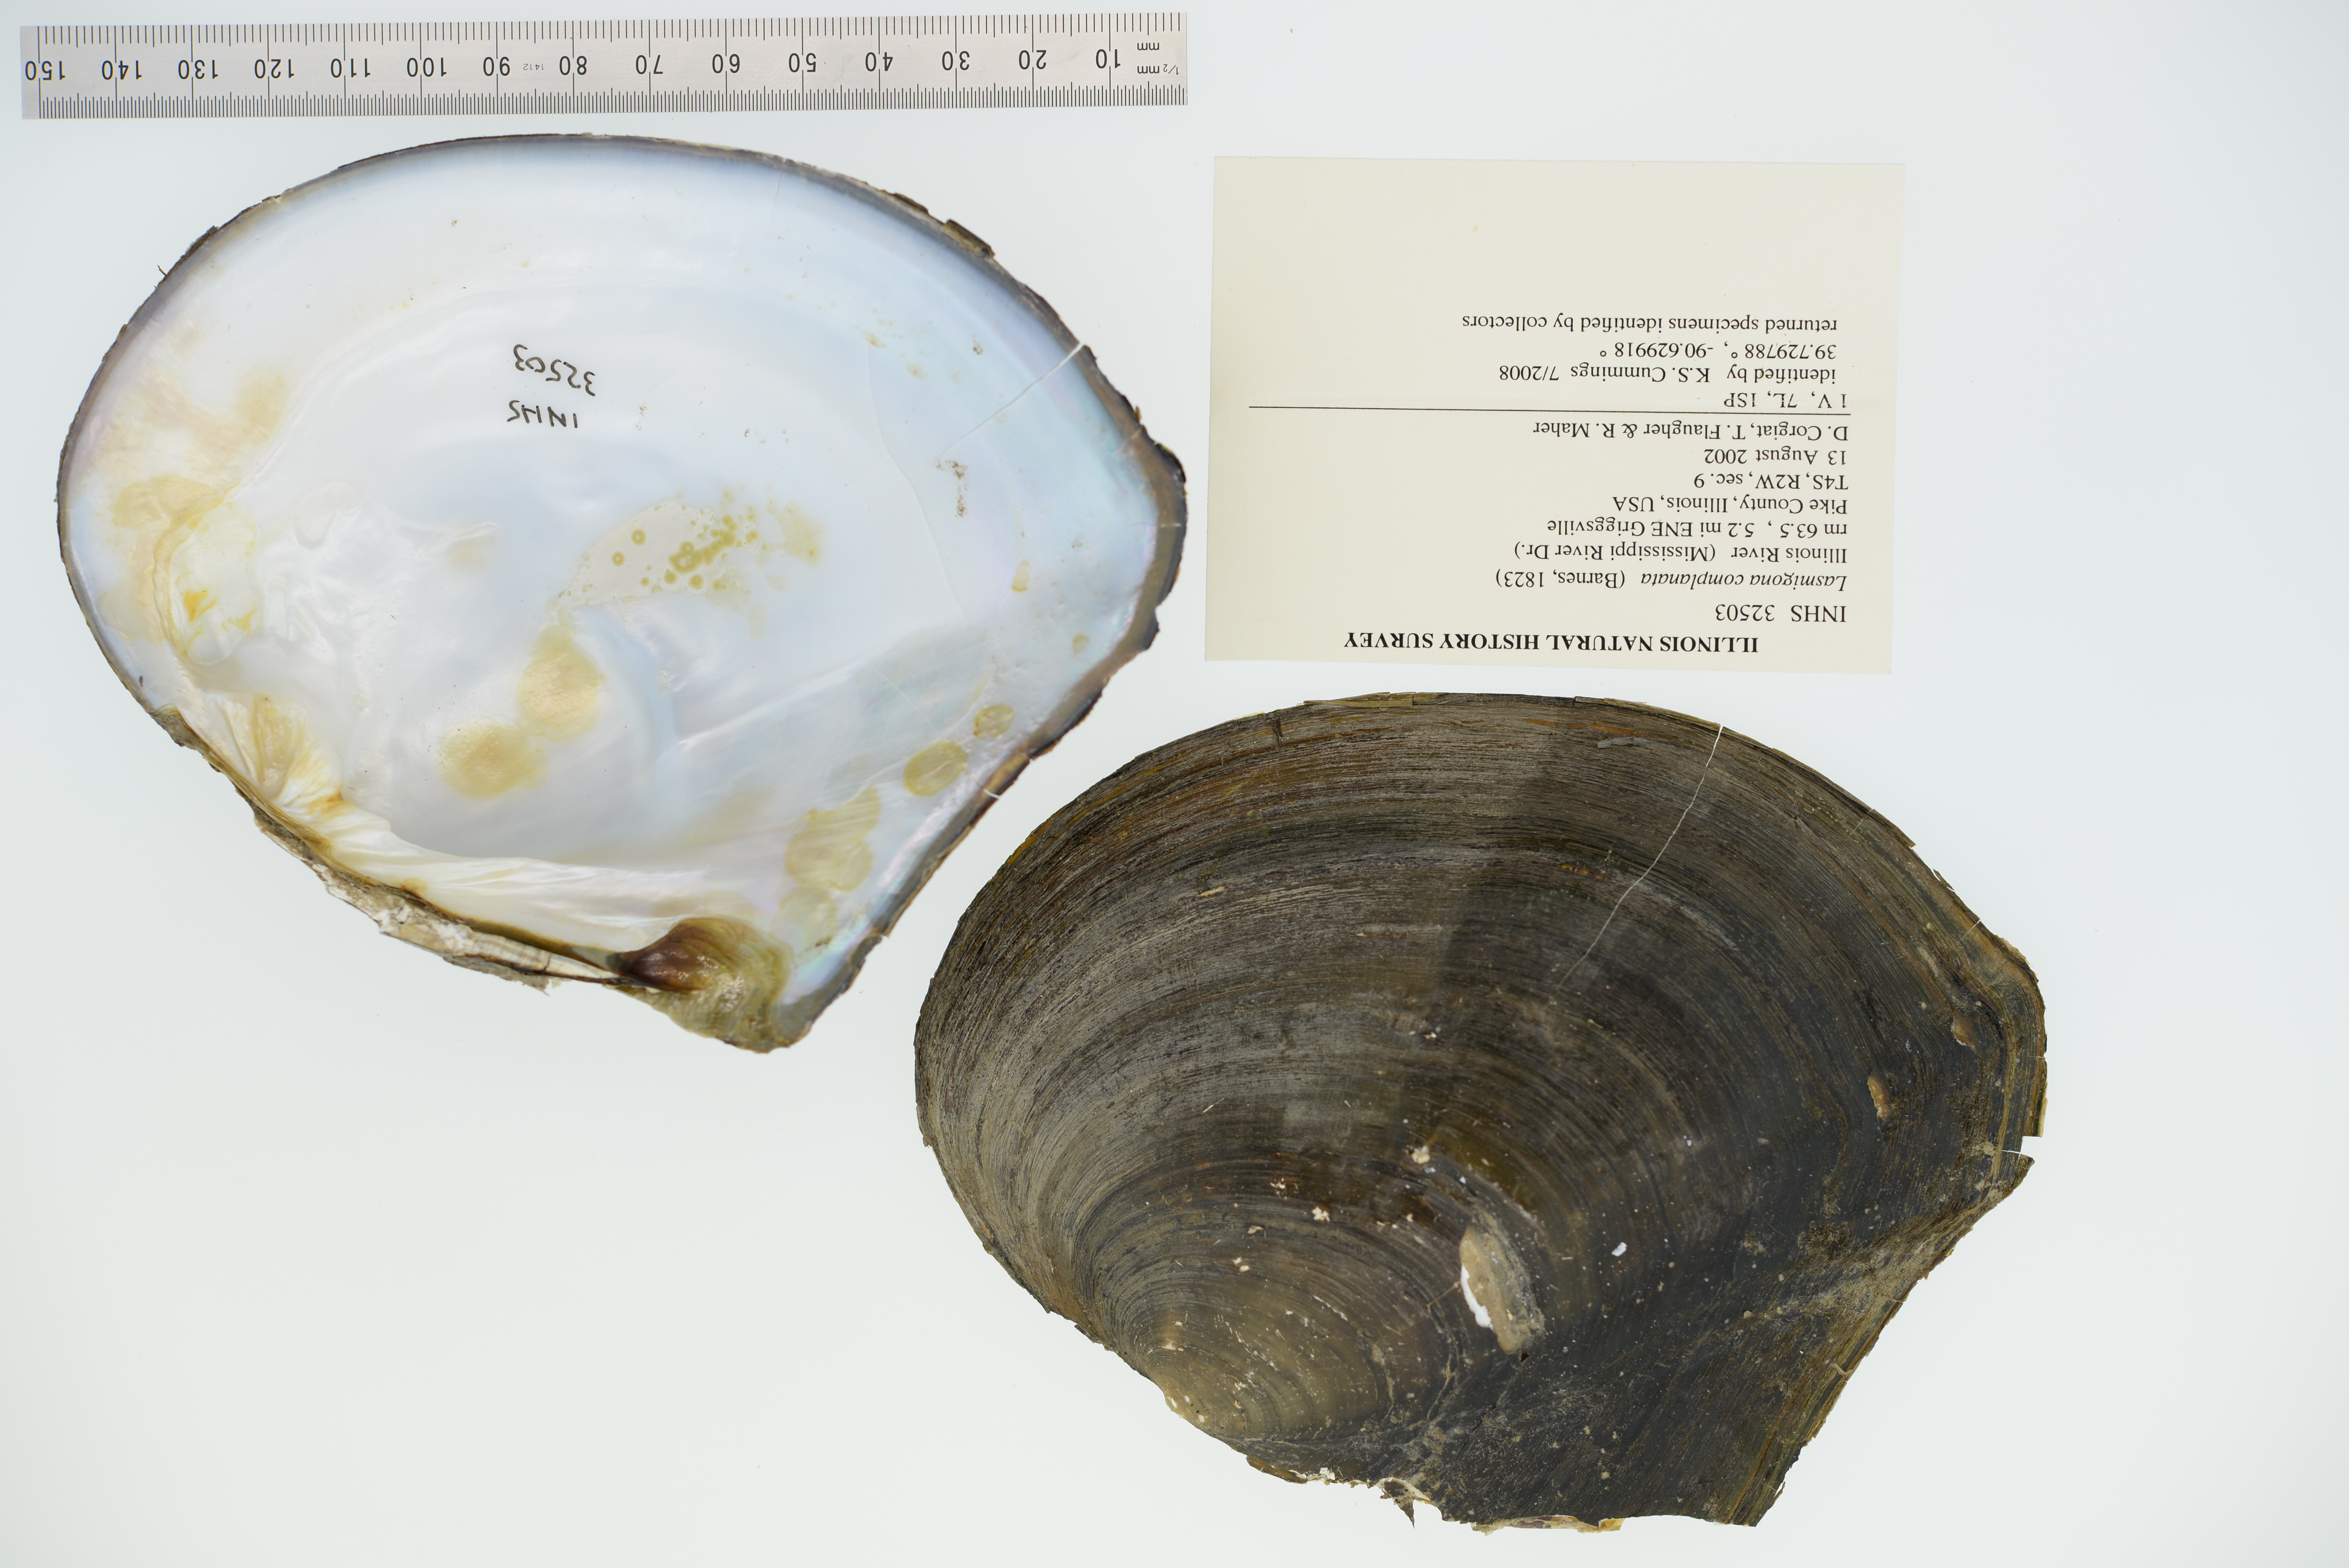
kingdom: Animalia
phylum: Mollusca
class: Bivalvia
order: Unionida
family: Unionidae
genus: Lasmigona
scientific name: Lasmigona complanata
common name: White heelsplitter
